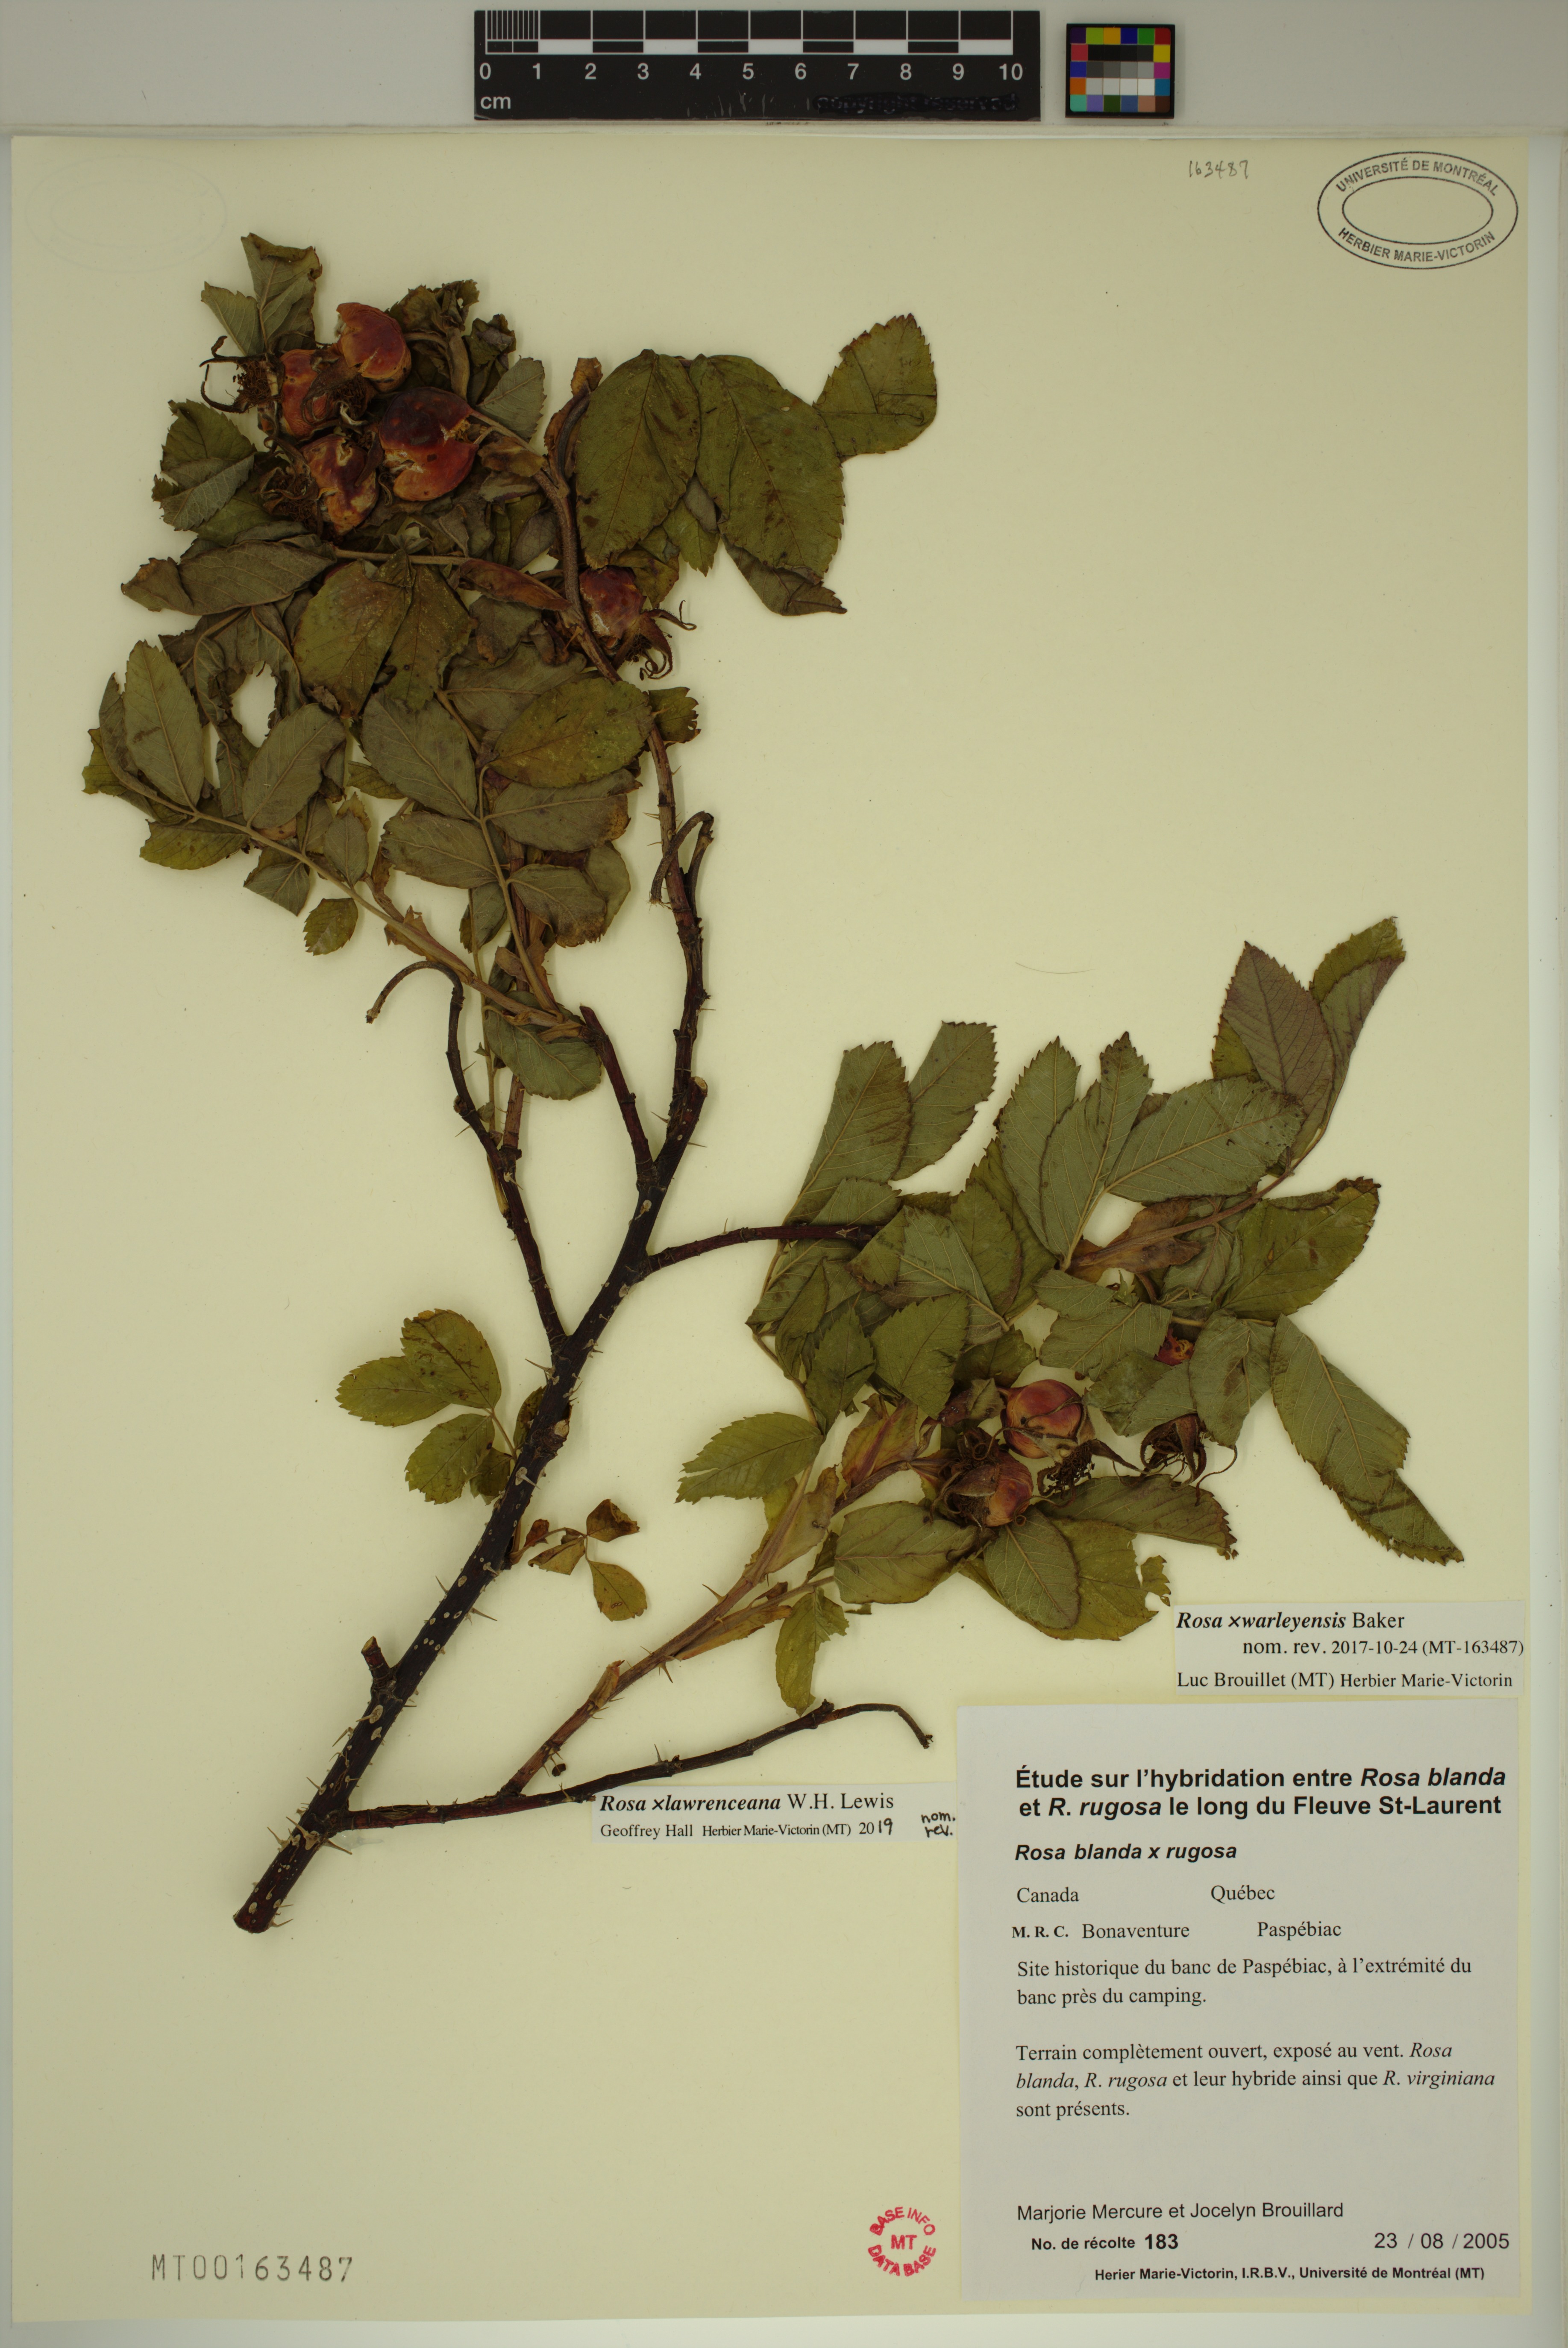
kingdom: Plantae
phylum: Tracheophyta
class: Magnoliopsida
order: Rosales
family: Rosaceae
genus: Rosa
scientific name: Rosa chinensis
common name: China rose
